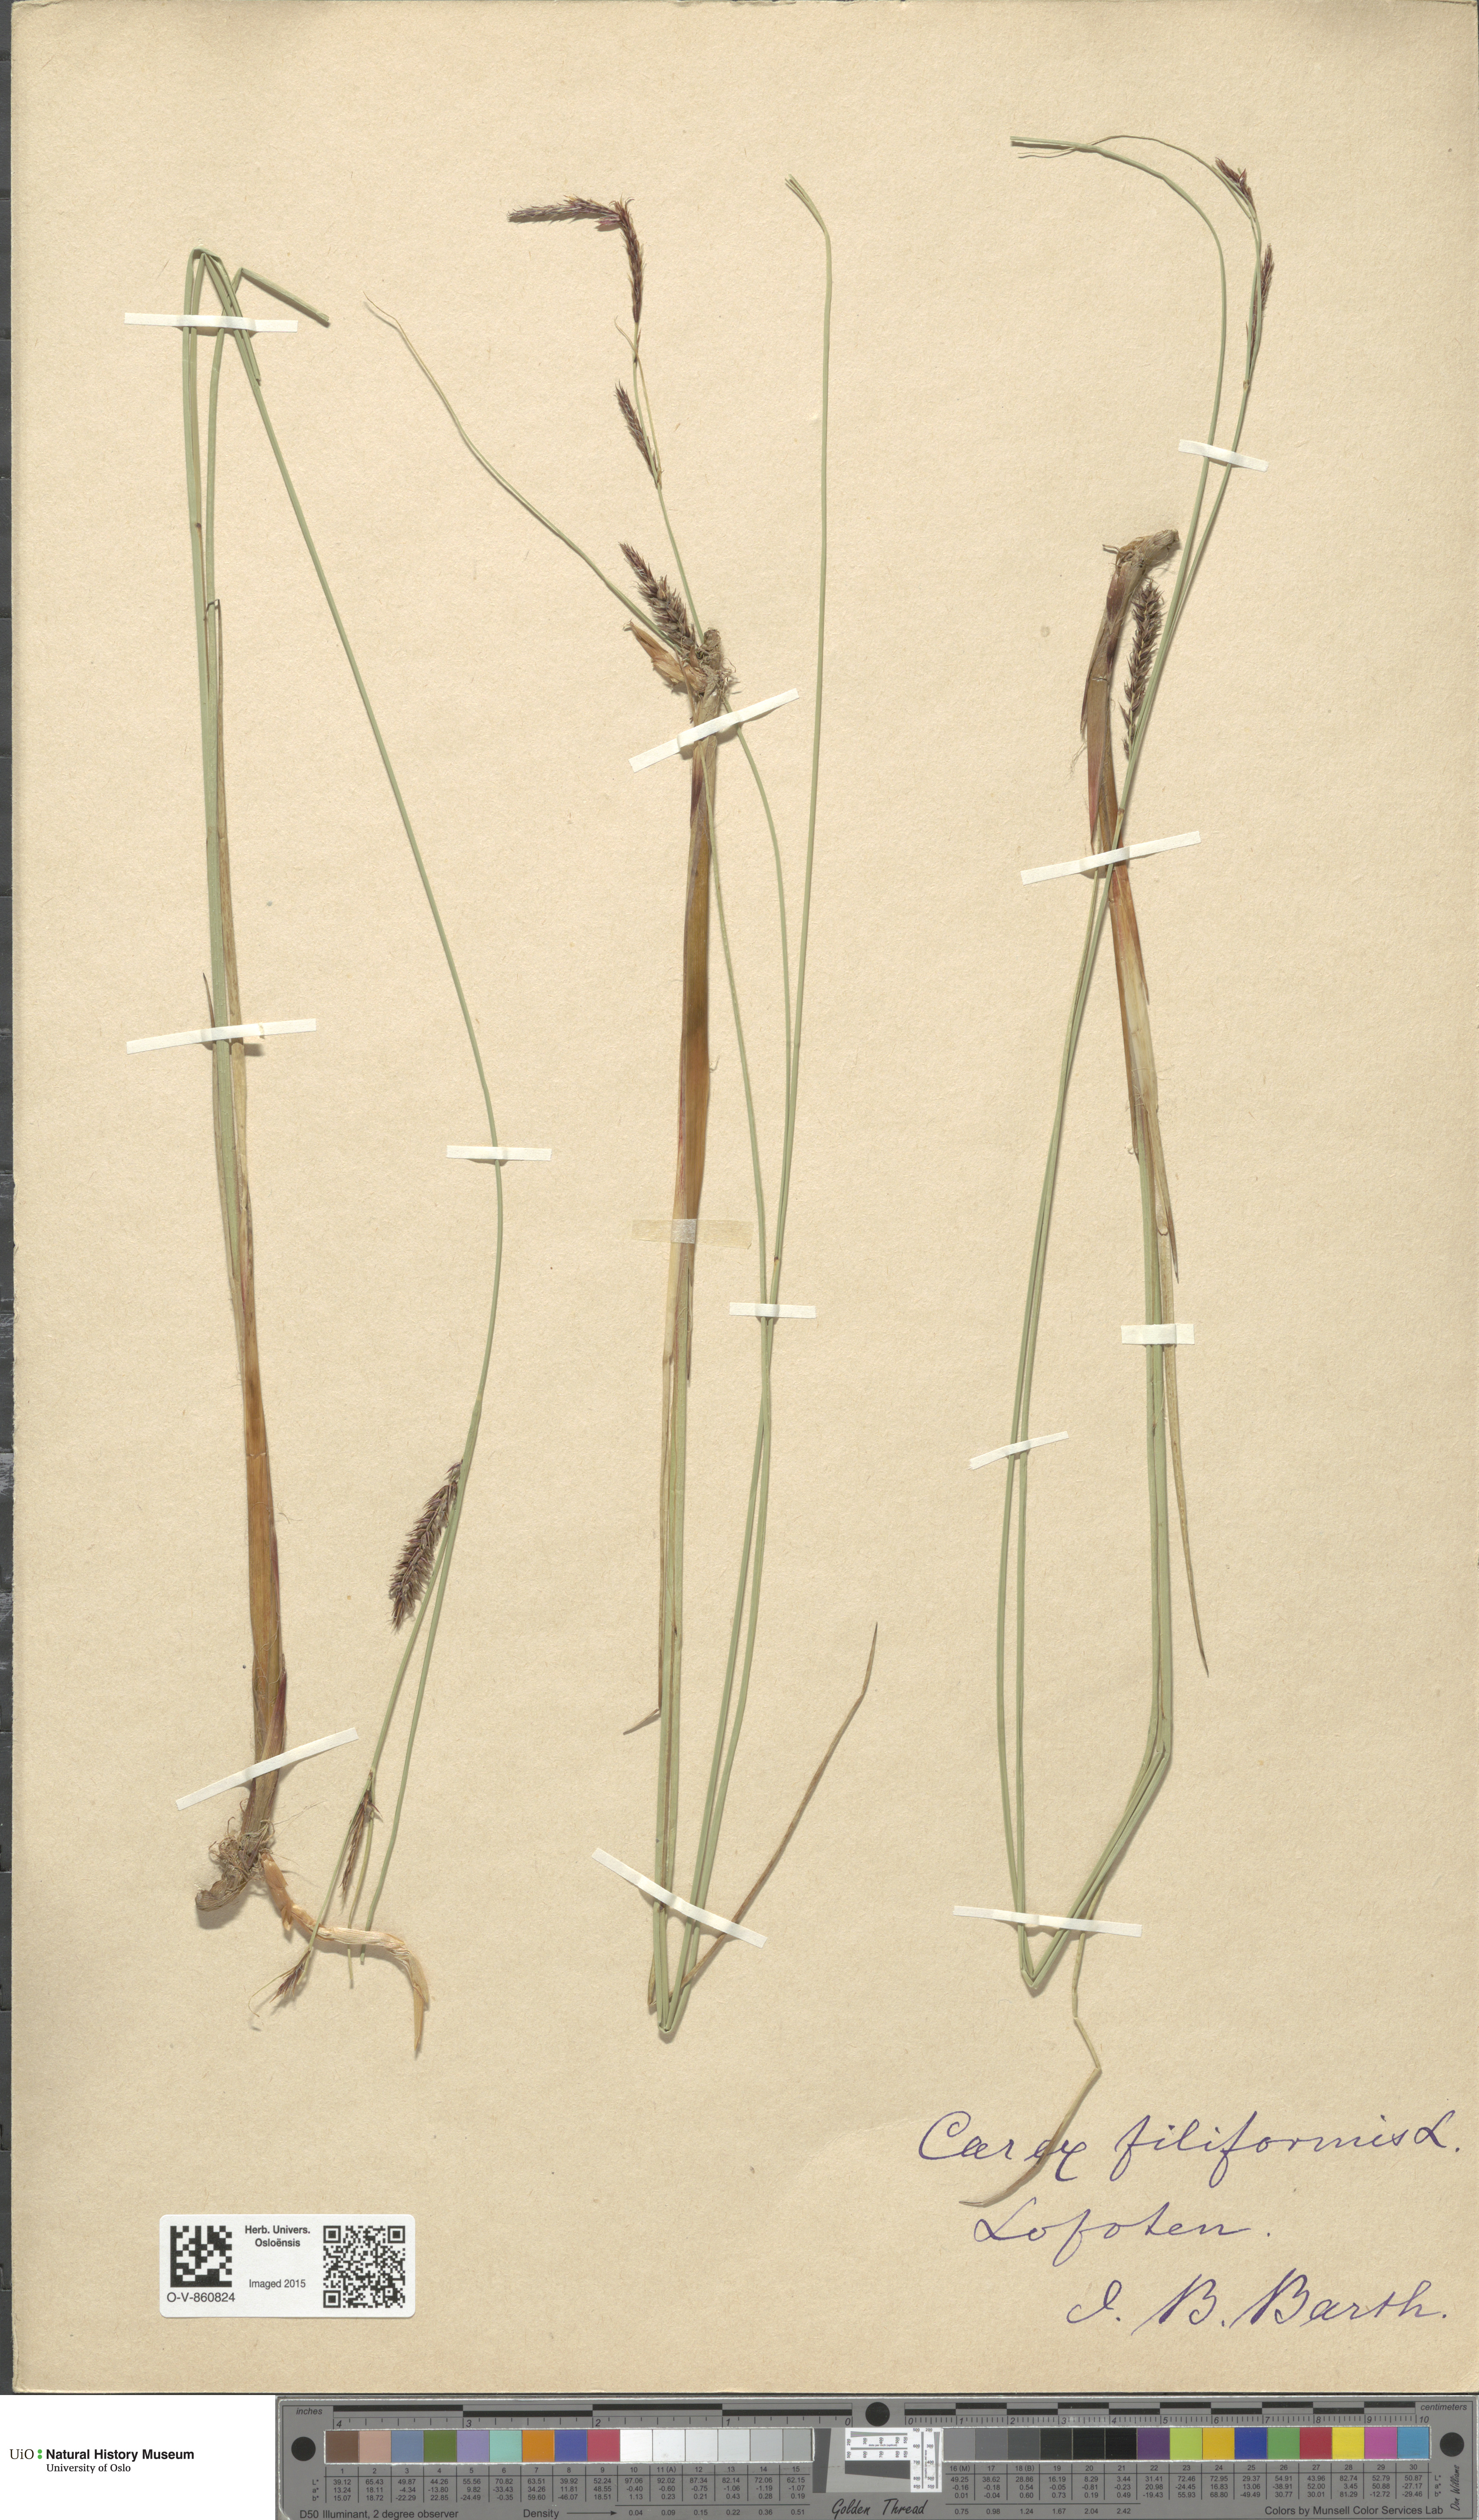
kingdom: Plantae
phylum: Tracheophyta
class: Liliopsida
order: Poales
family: Cyperaceae
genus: Carex
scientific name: Carex lasiocarpa
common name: Slender sedge
